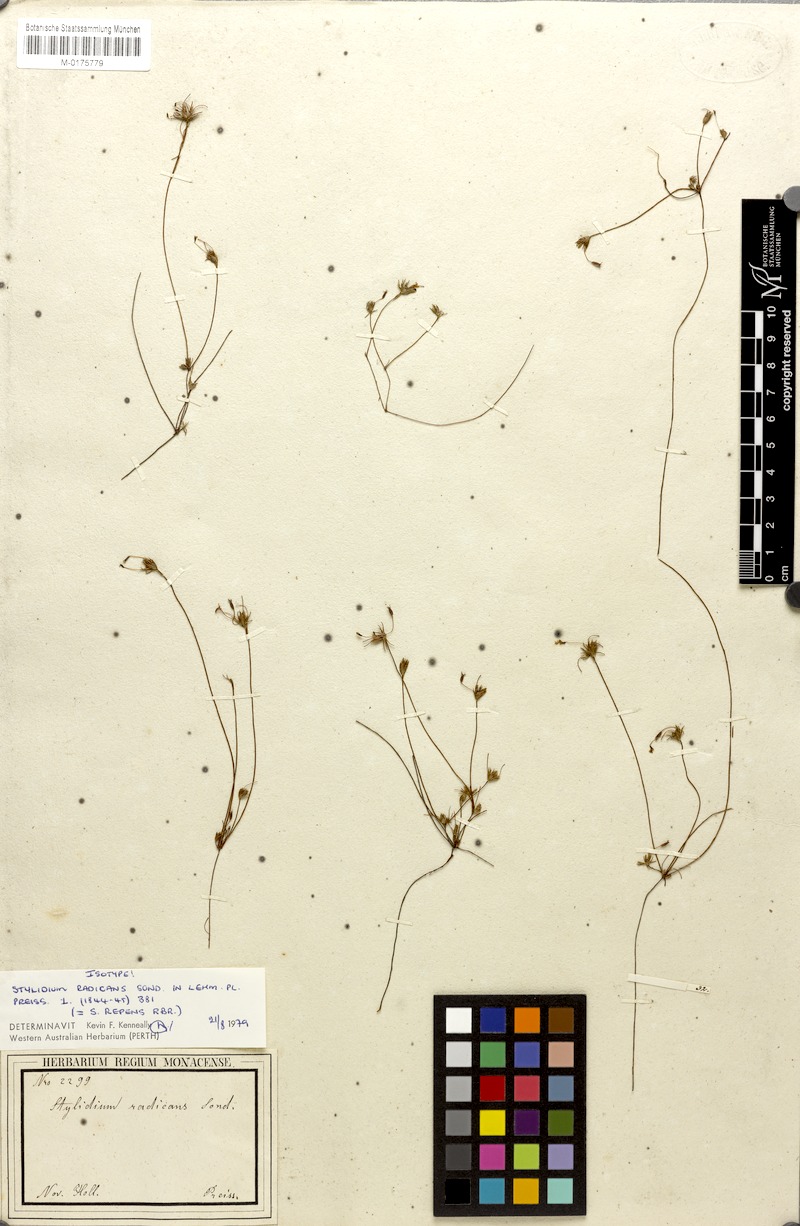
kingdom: Plantae
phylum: Tracheophyta
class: Magnoliopsida
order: Asterales
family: Stylidiaceae
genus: Stylidium
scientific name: Stylidium repens
